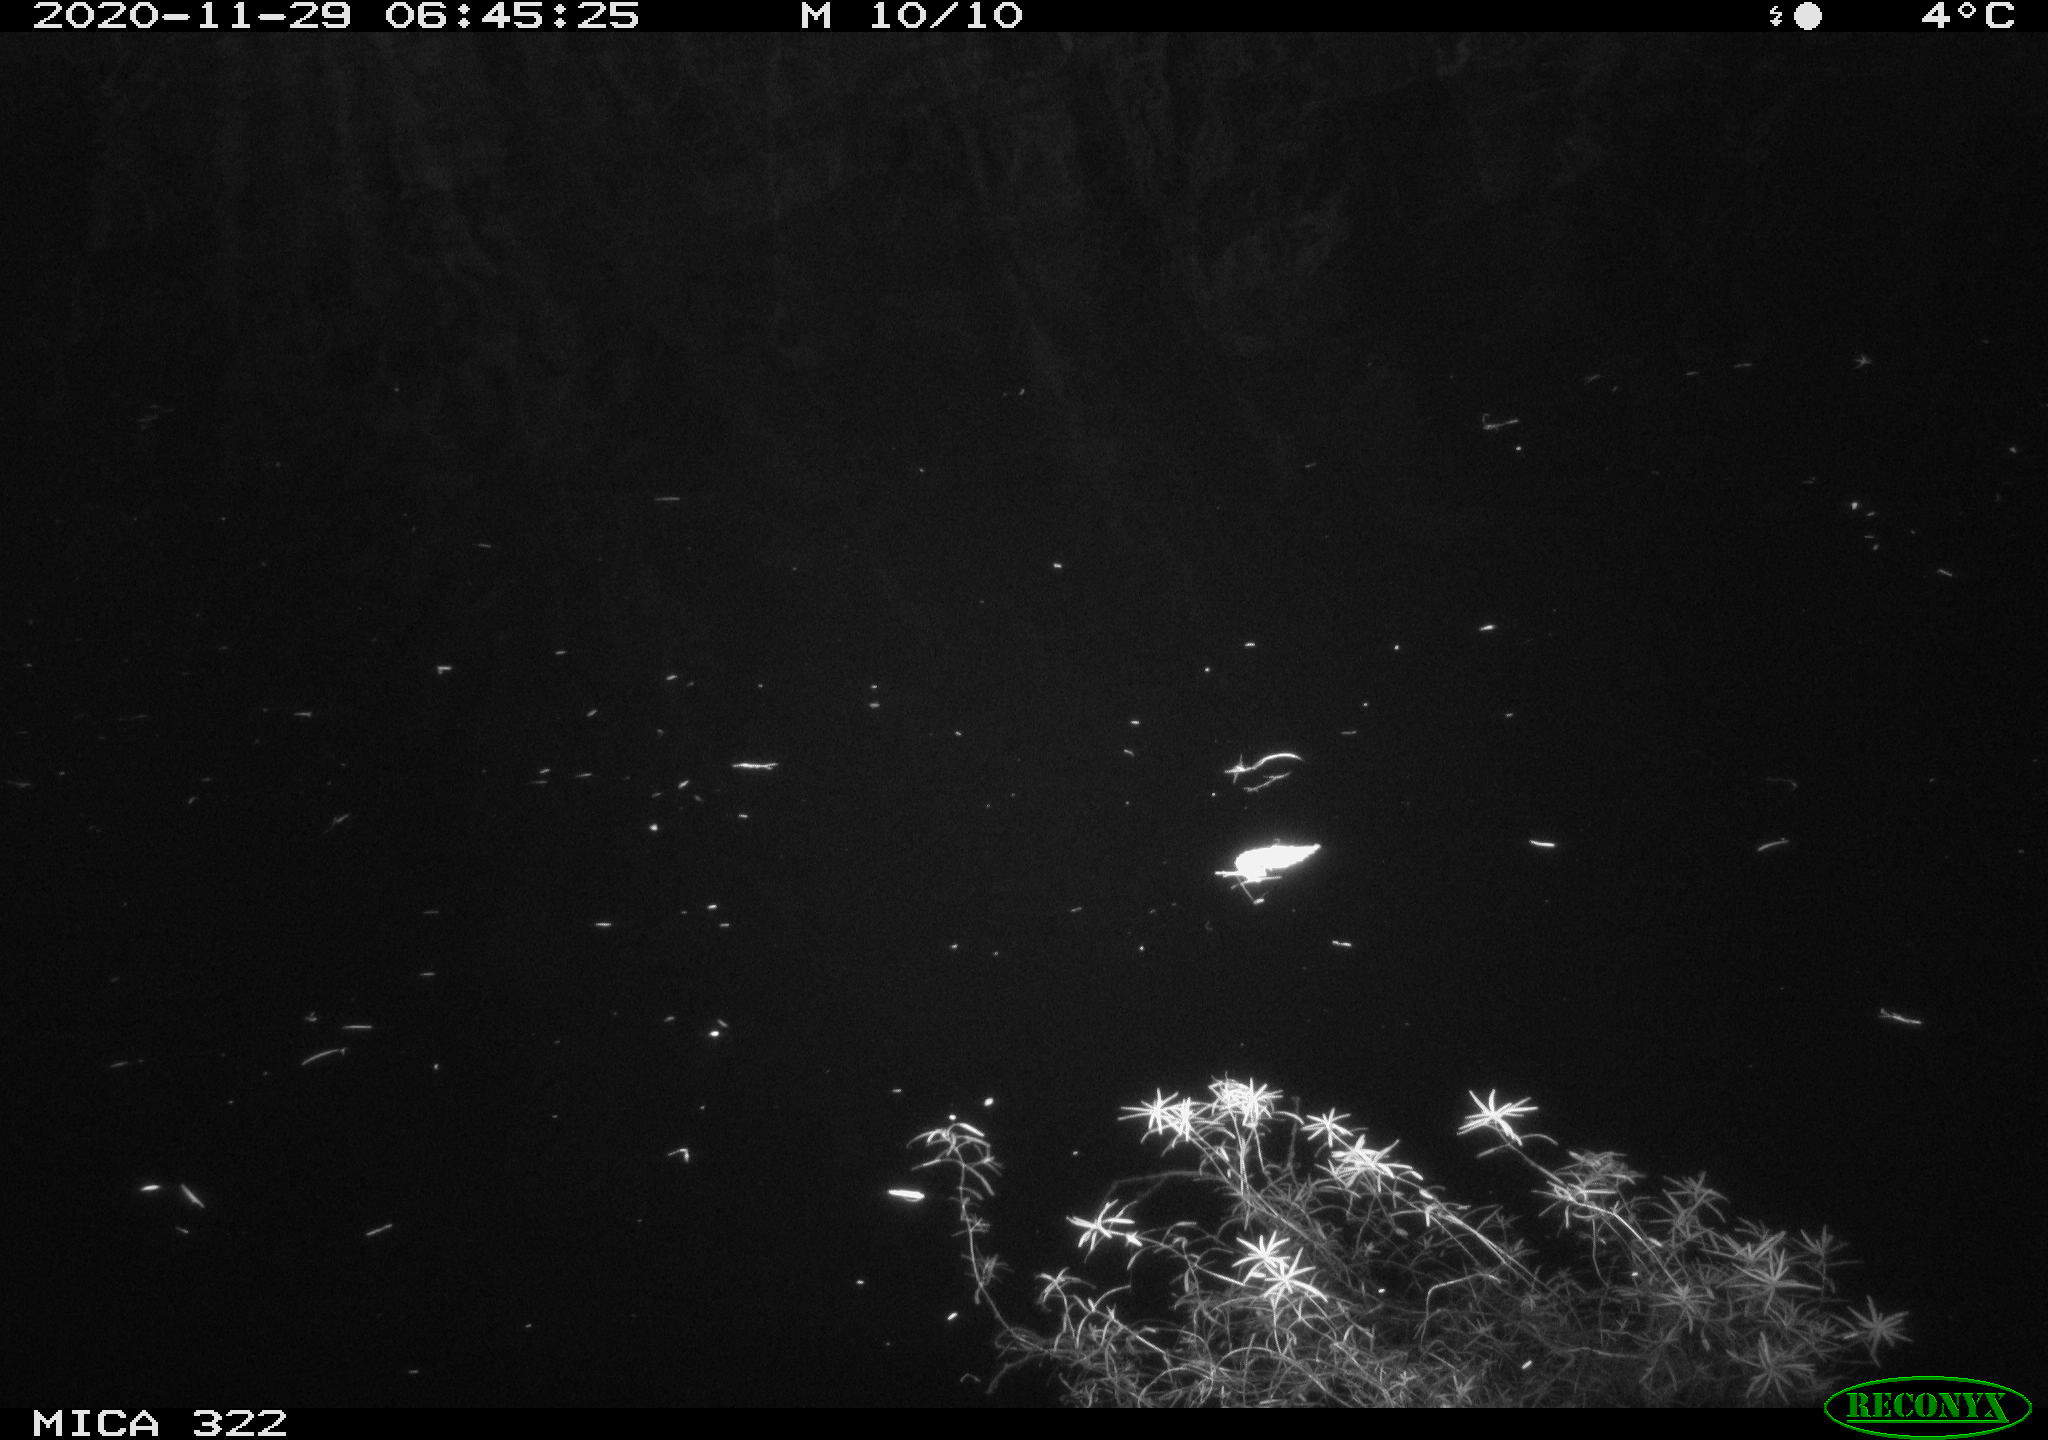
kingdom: Animalia
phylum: Chordata
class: Aves
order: Anseriformes
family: Anatidae
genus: Anas
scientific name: Anas platyrhynchos
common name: Mallard
